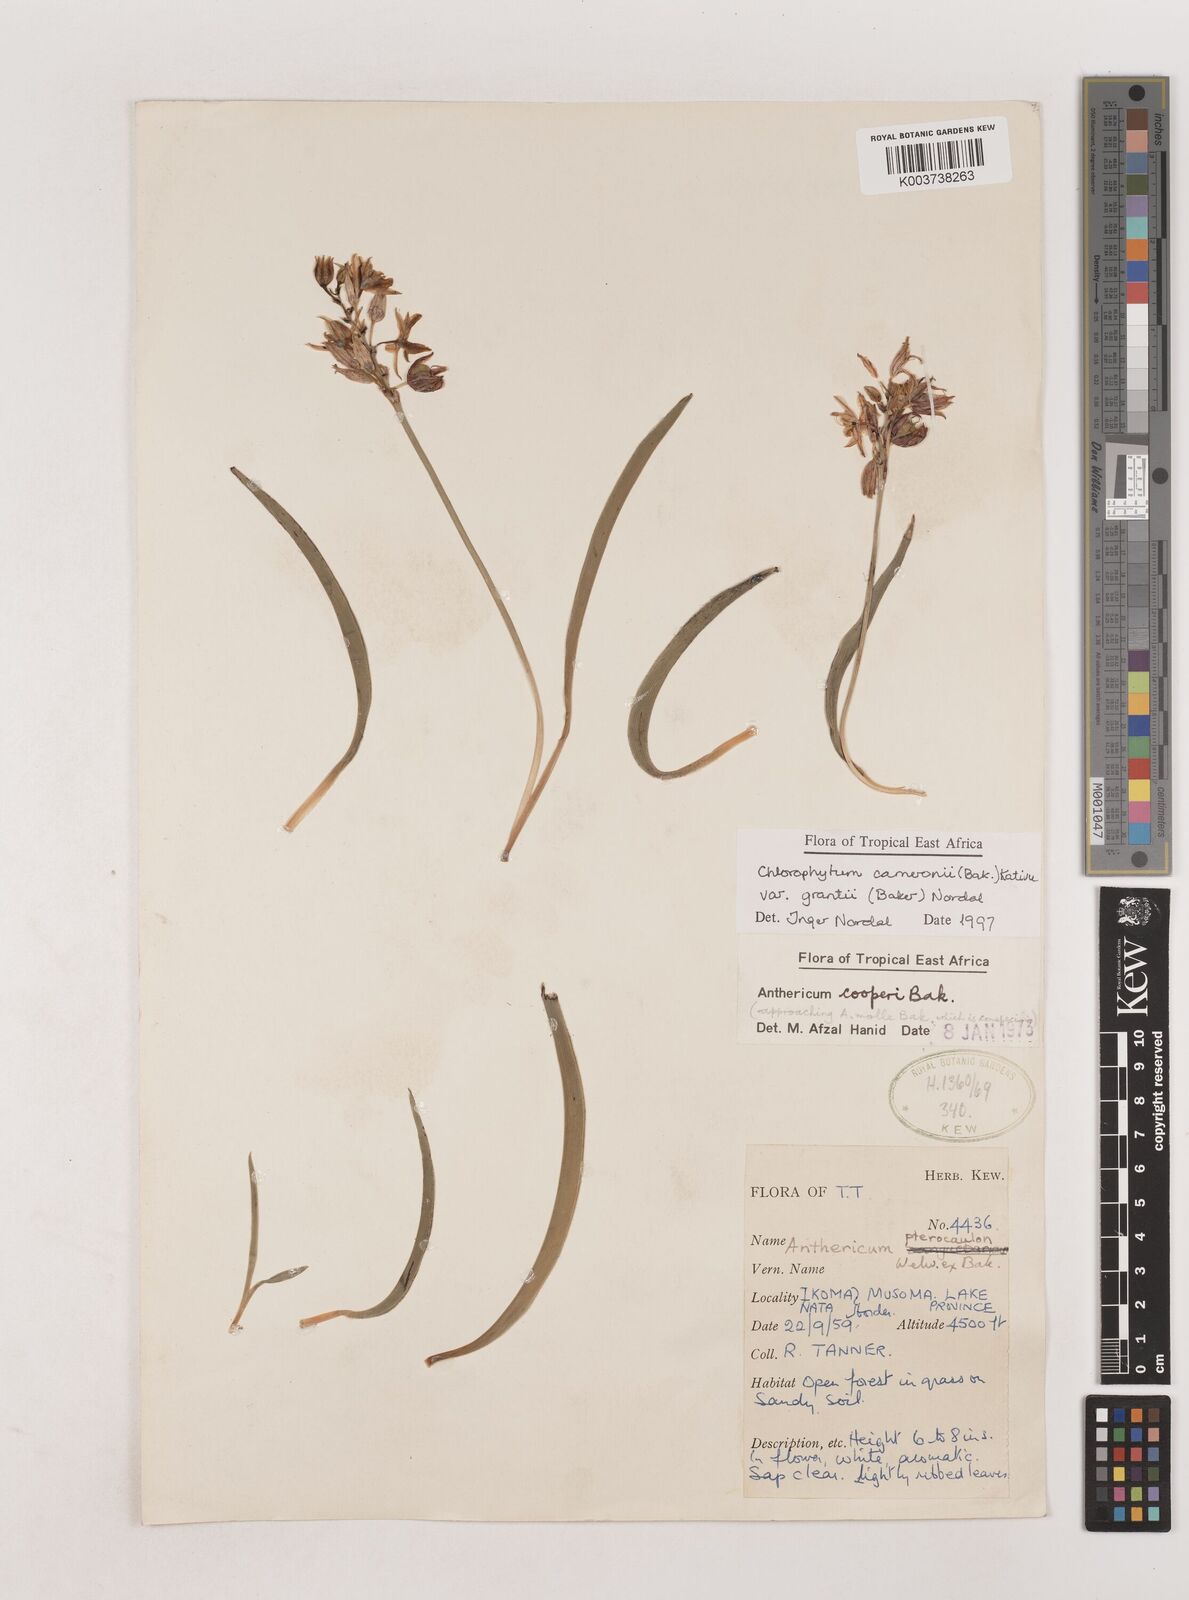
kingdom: Plantae
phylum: Tracheophyta
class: Liliopsida
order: Asparagales
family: Asparagaceae
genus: Chlorophytum
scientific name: Chlorophytum cameronii
